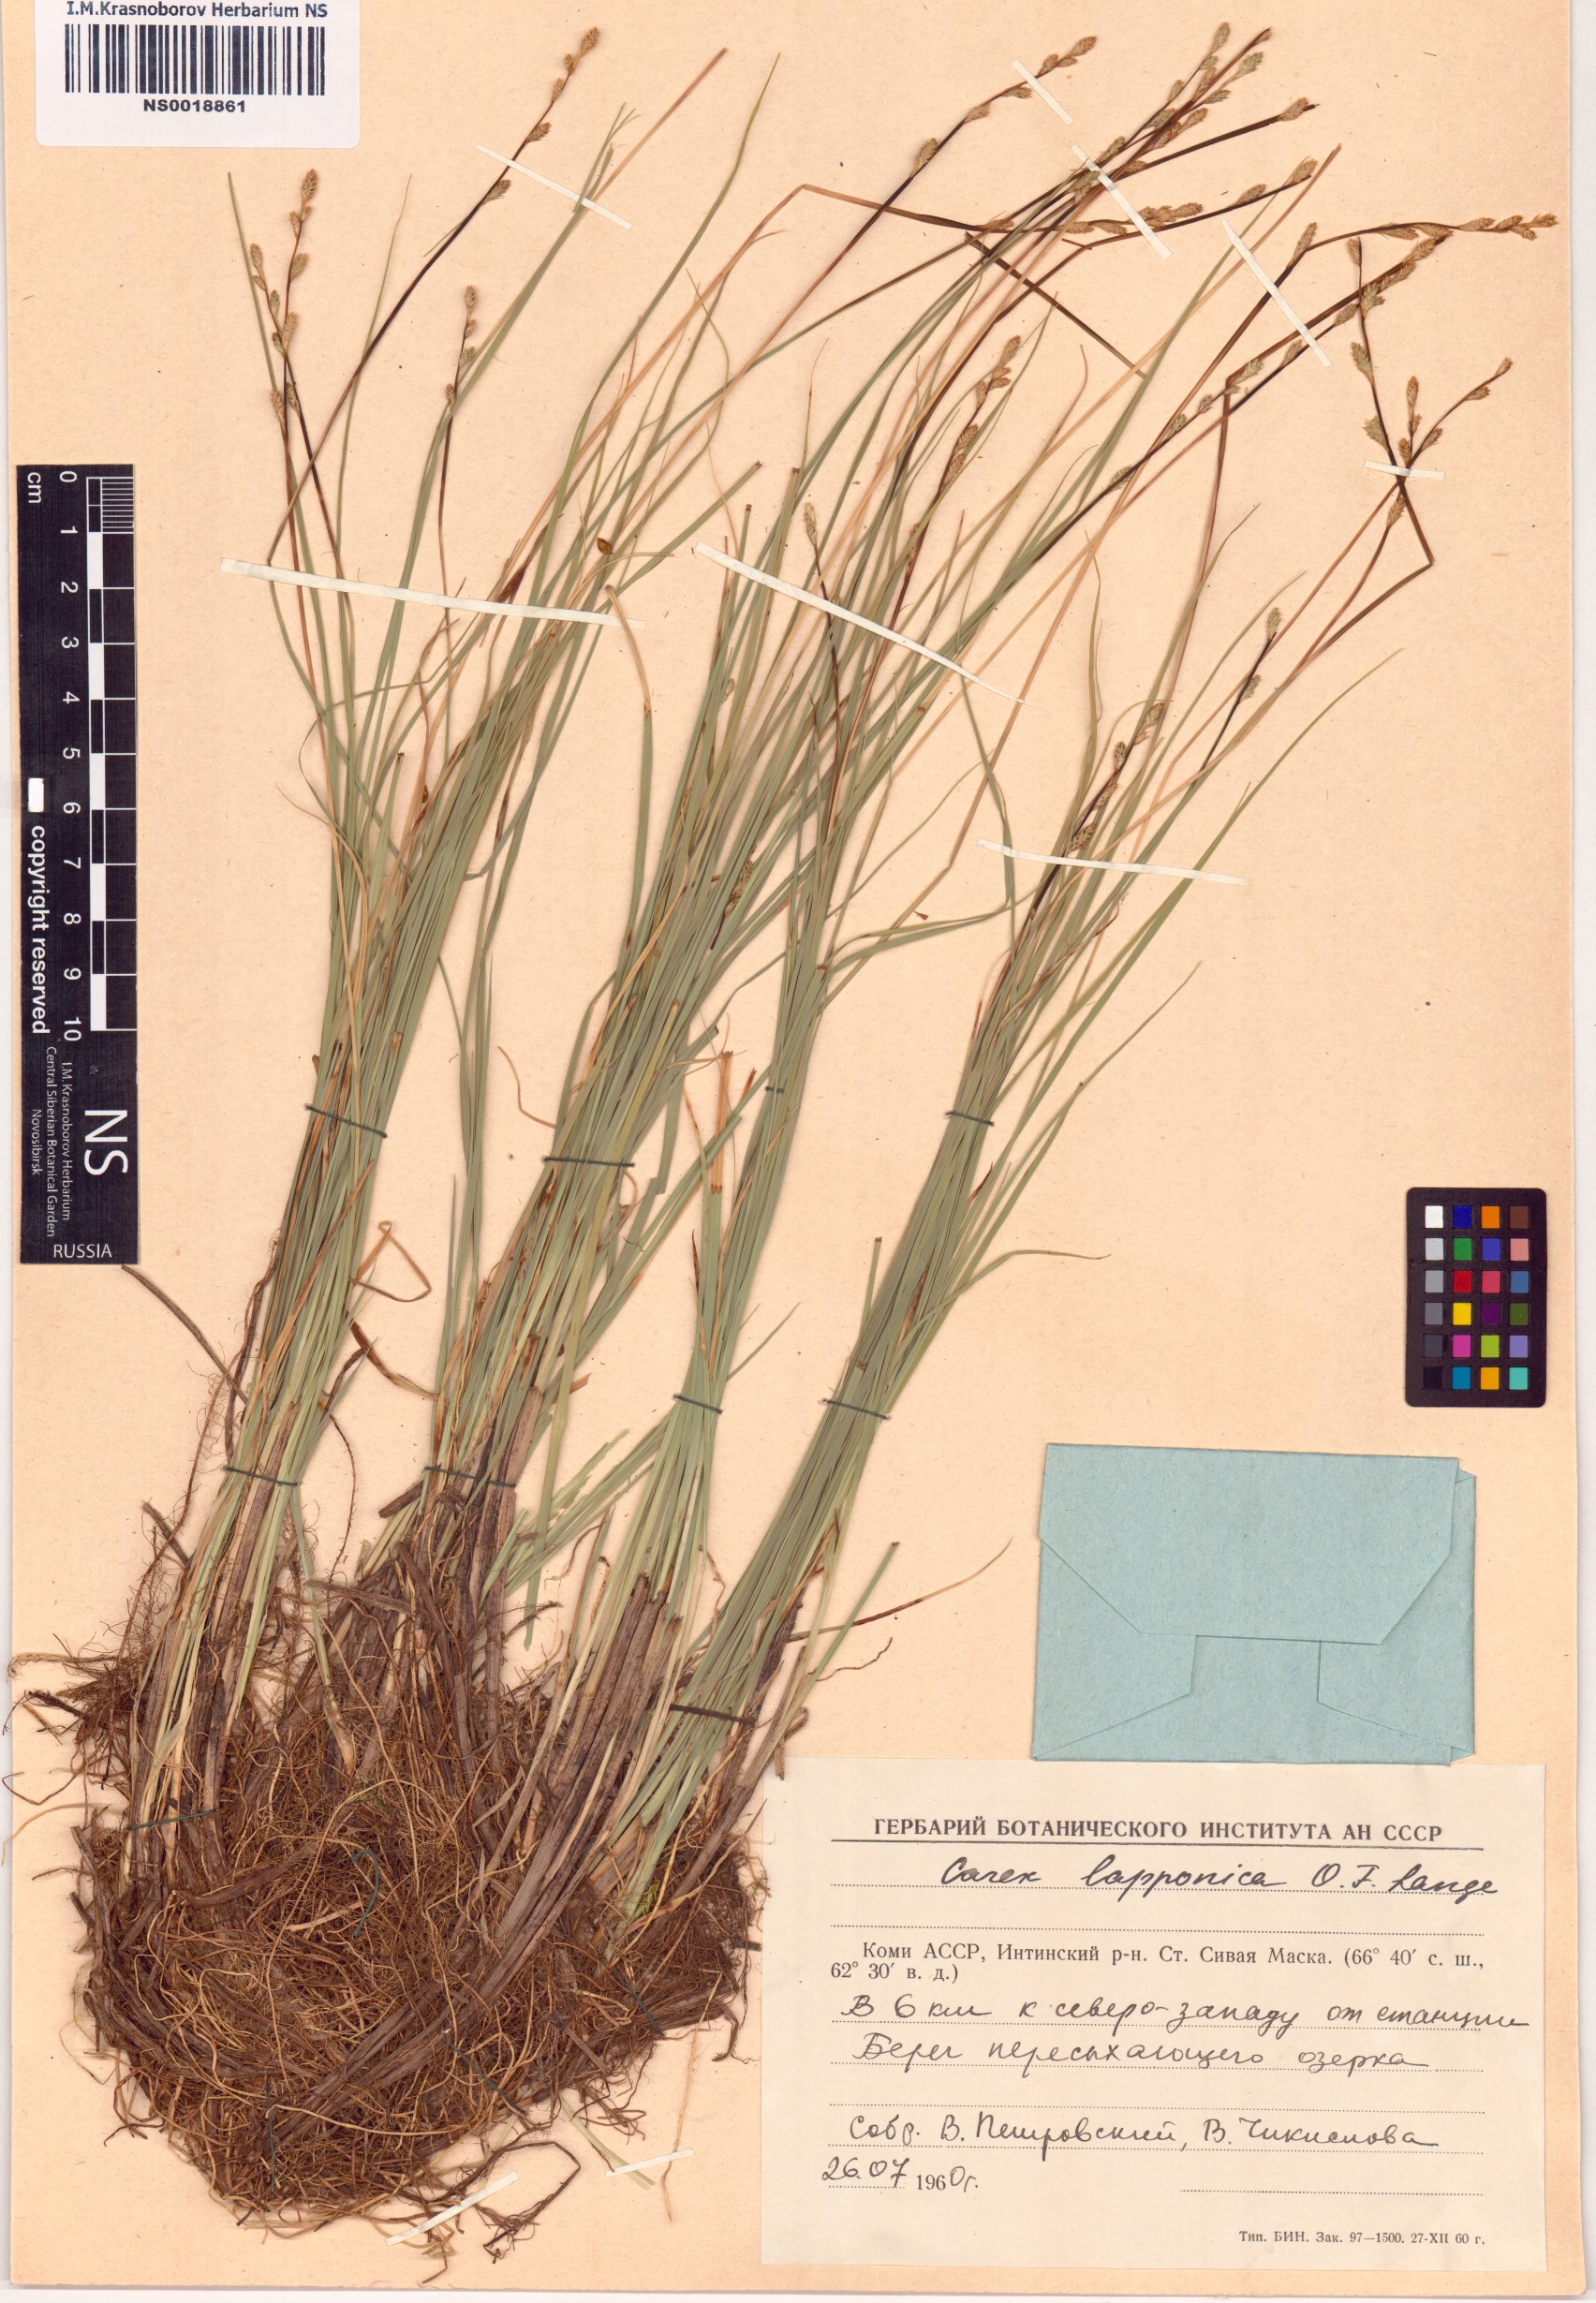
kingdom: Plantae
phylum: Tracheophyta
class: Liliopsida
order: Poales
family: Cyperaceae
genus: Carex
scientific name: Carex lapponica
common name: Lapland sedge
